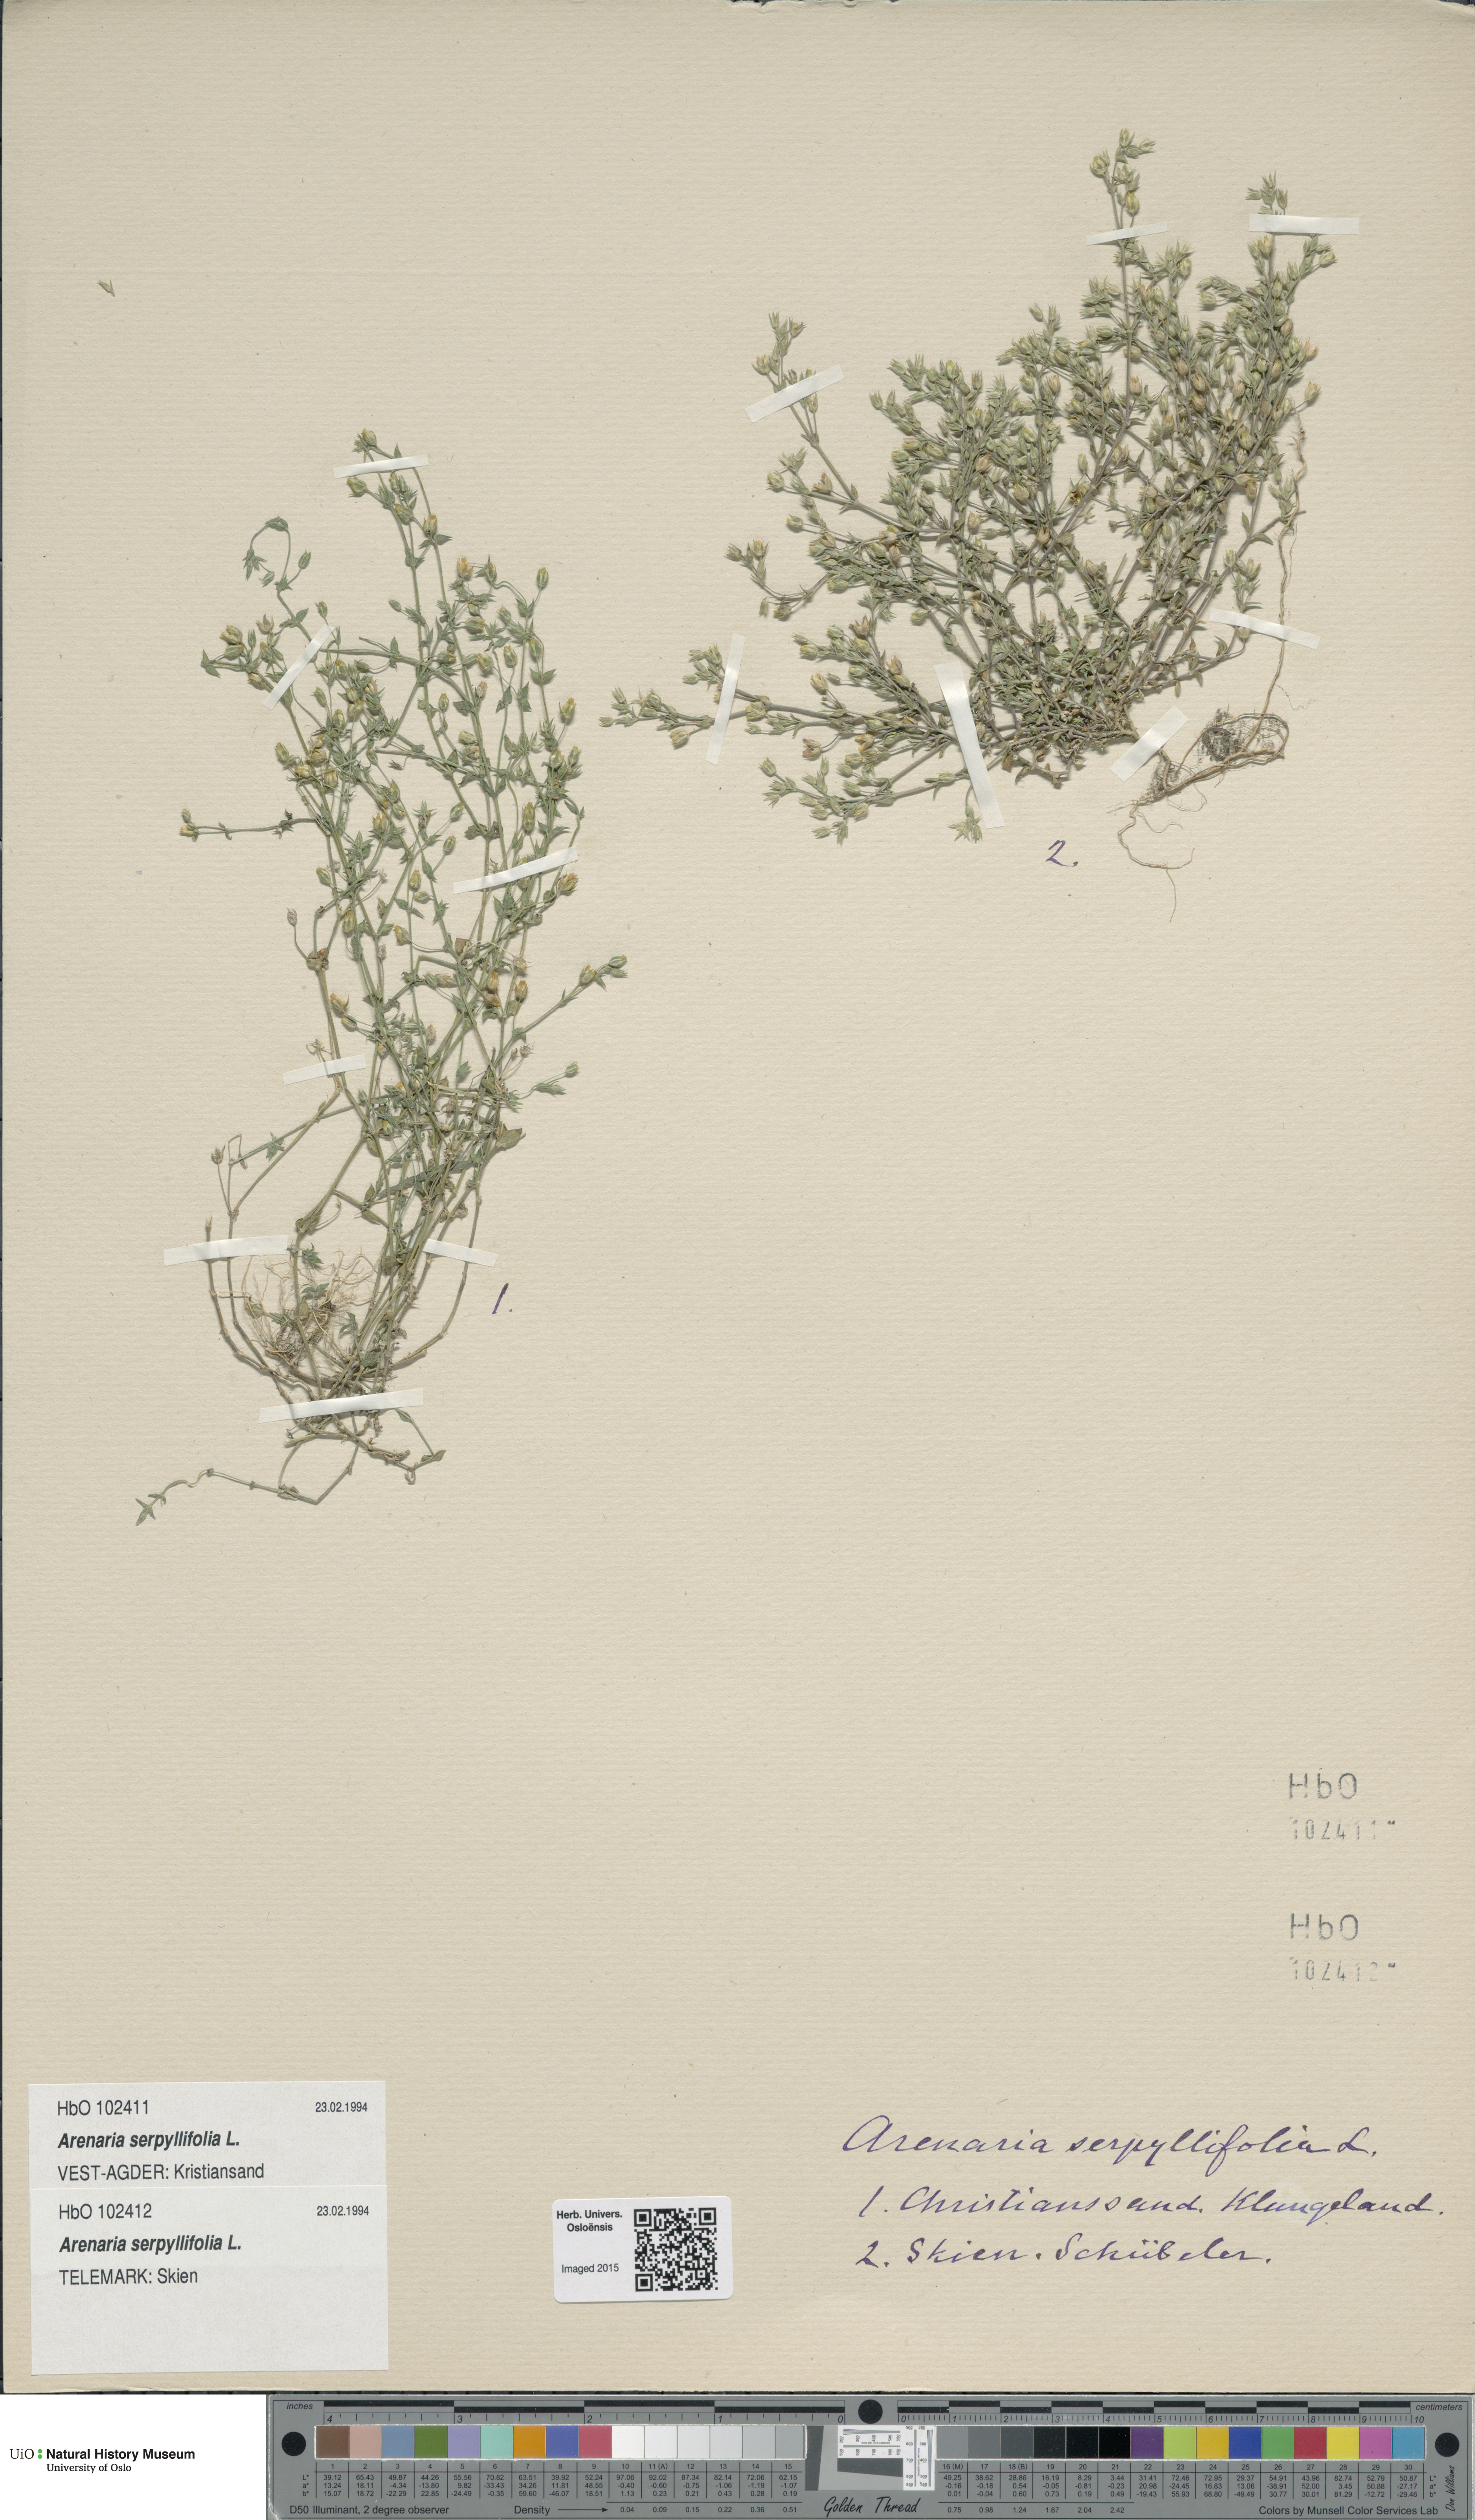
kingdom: Plantae
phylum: Tracheophyta
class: Magnoliopsida
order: Caryophyllales
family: Caryophyllaceae
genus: Arenaria
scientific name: Arenaria serpyllifolia
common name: Thyme-leaved sandwort
